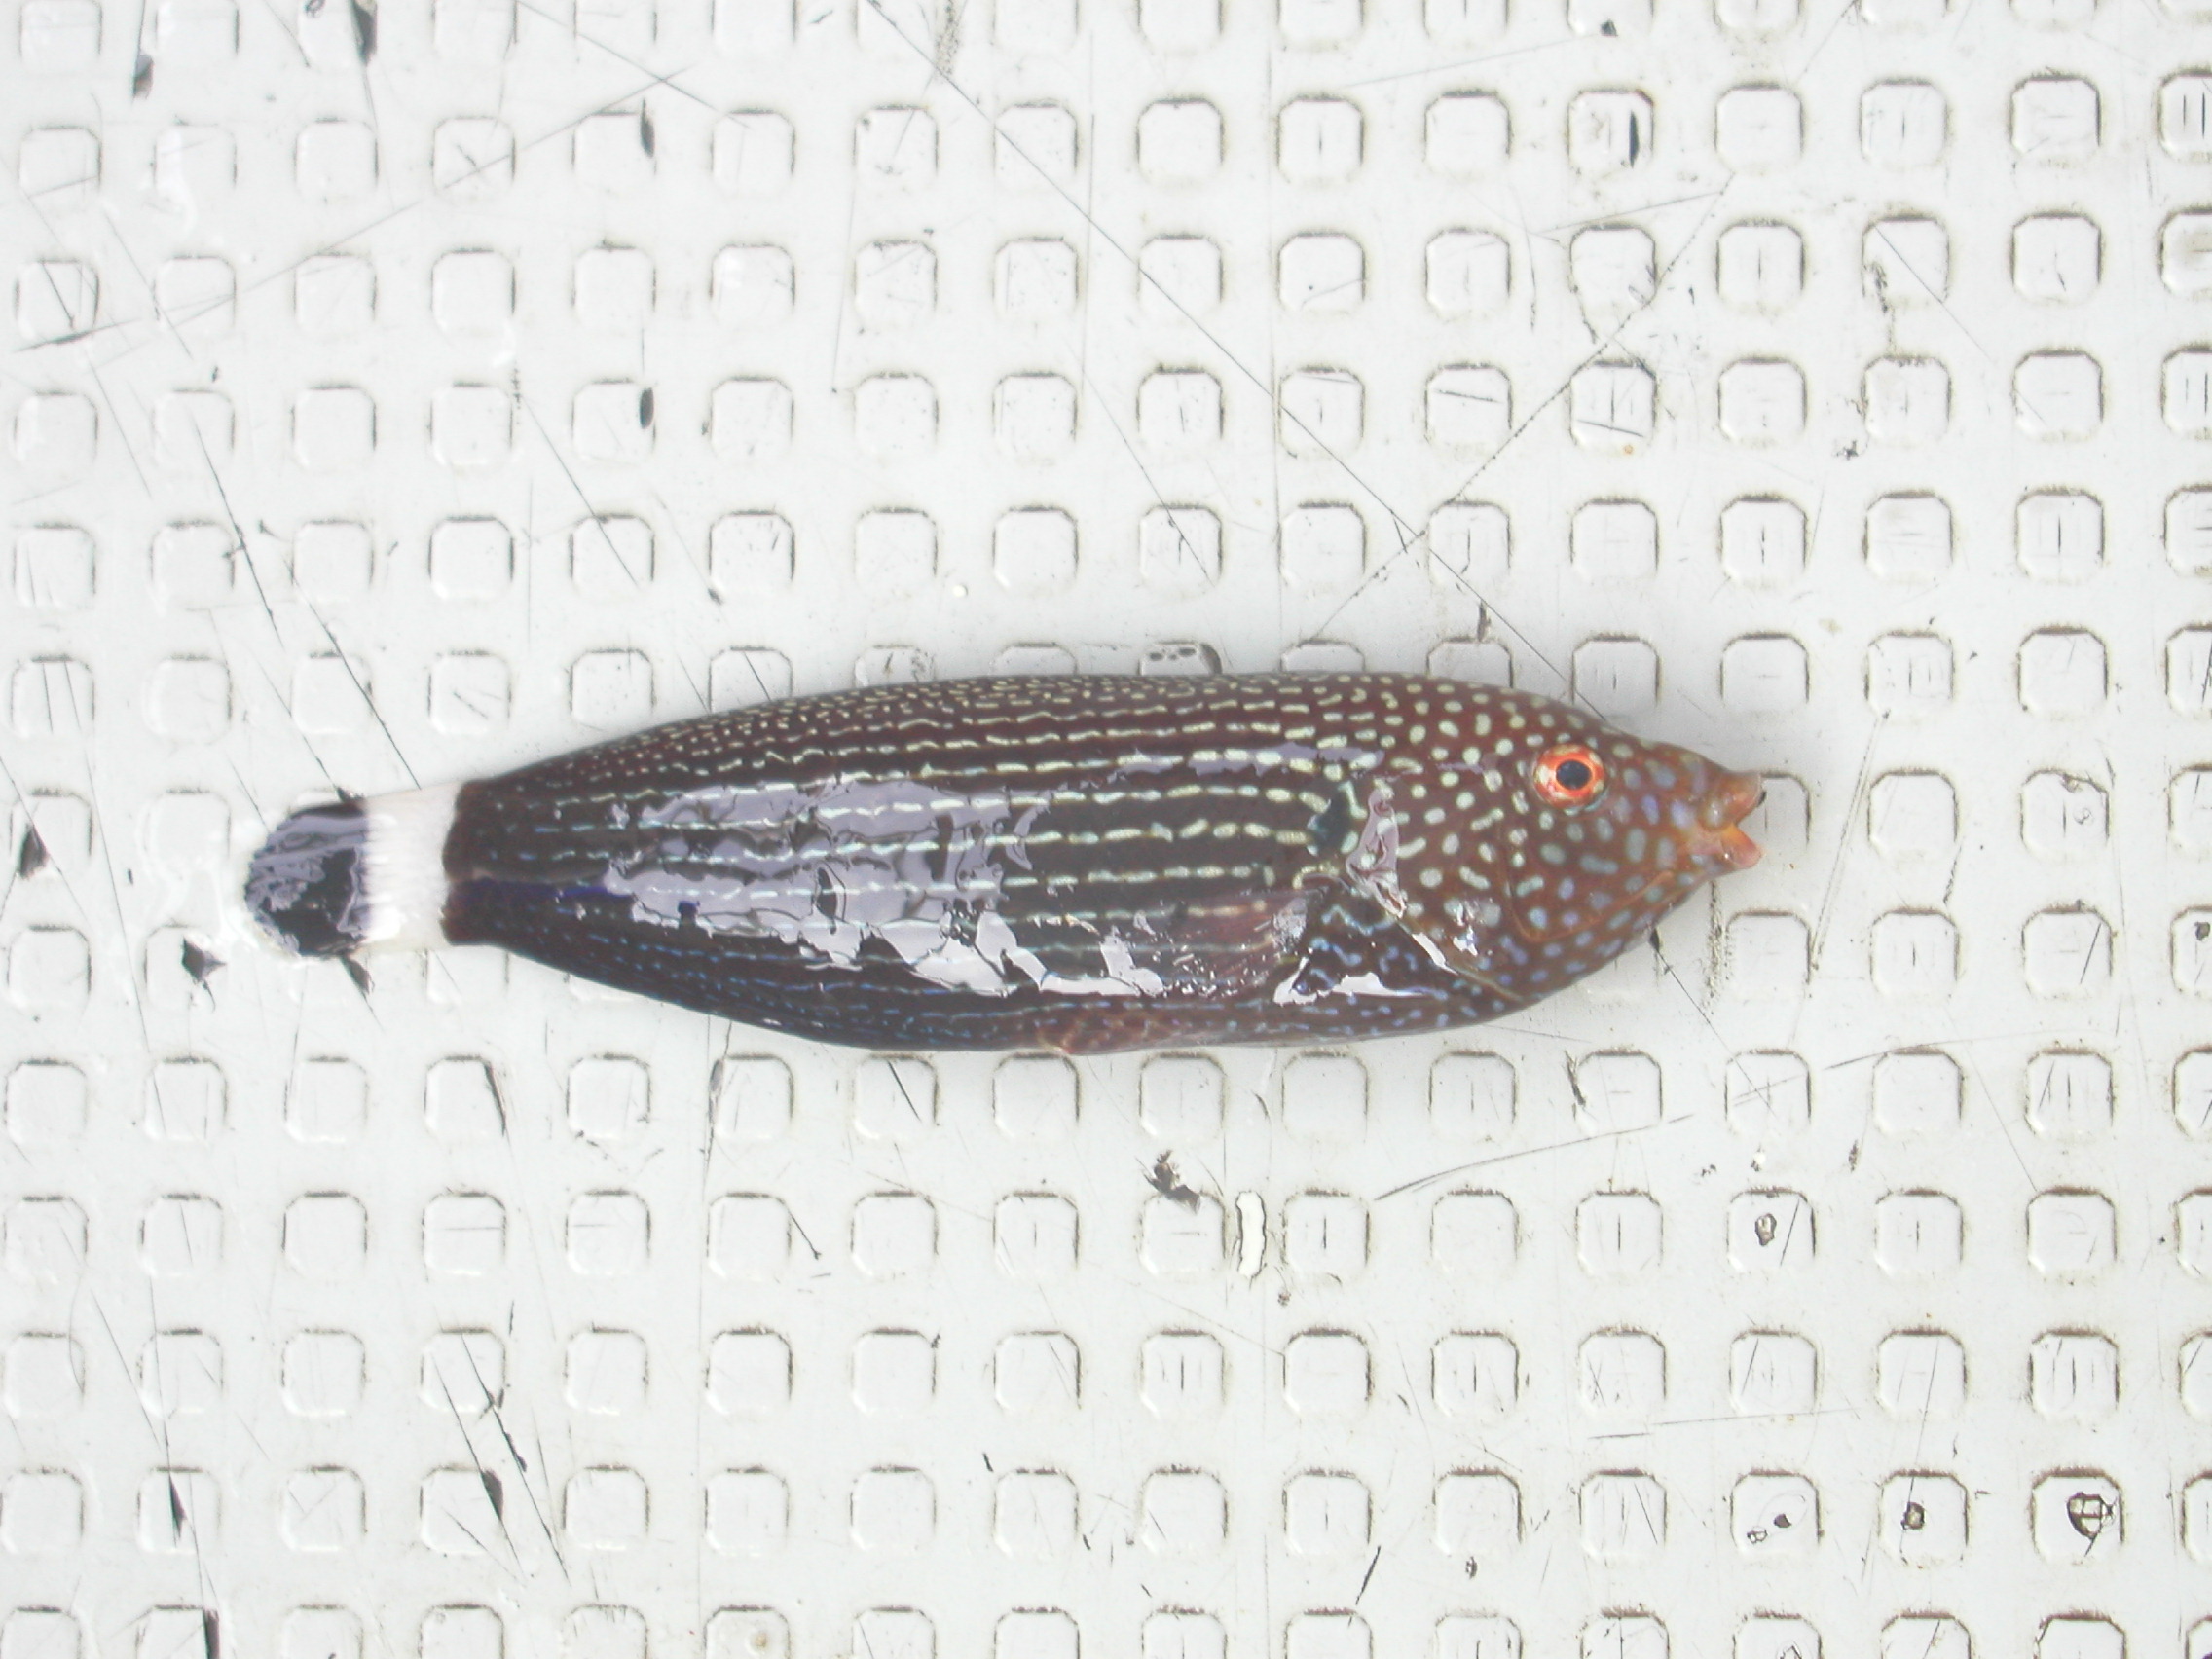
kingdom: Animalia
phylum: Chordata
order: Perciformes
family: Labridae
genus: Anampses
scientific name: Anampses lineatus
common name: Lined wrasse
